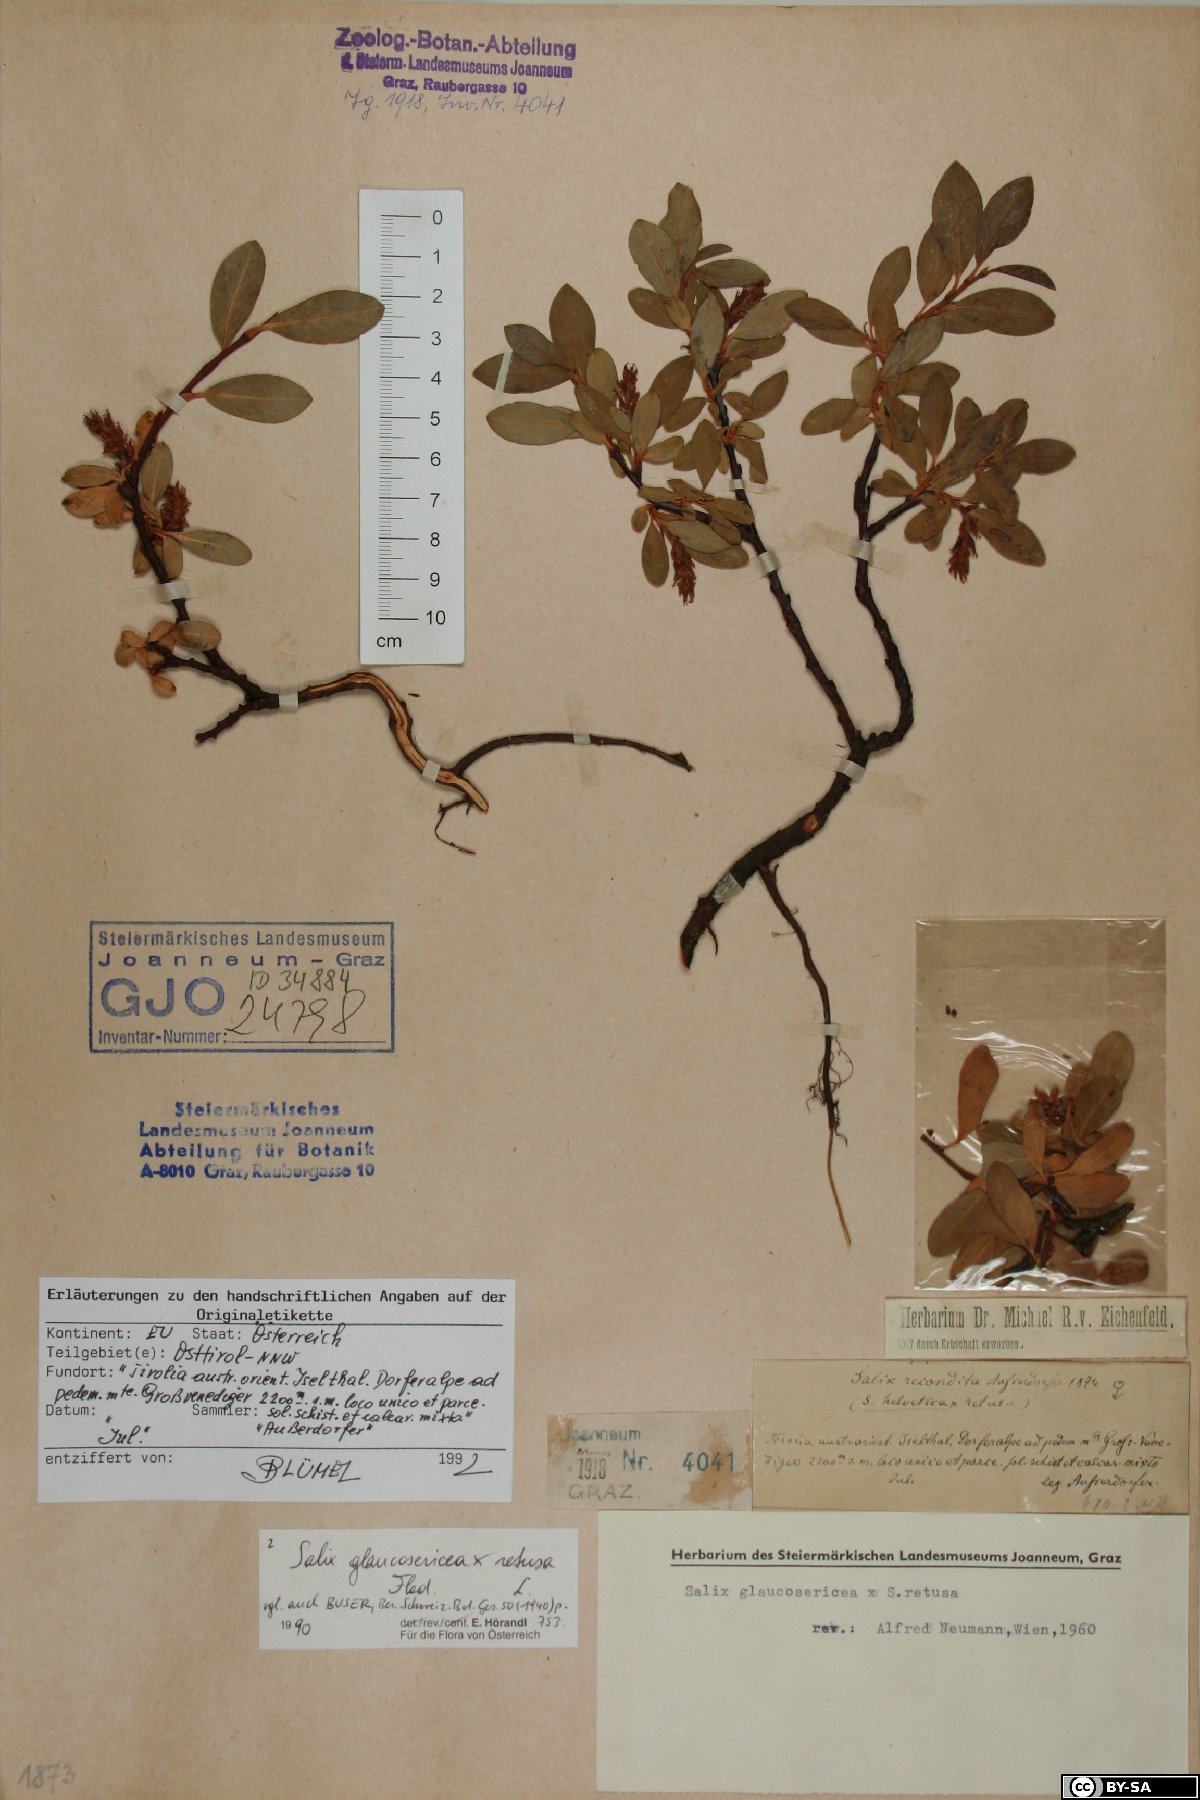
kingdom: Plantae
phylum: Tracheophyta
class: Magnoliopsida
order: Malpighiales
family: Salicaceae
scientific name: Salicaceae
